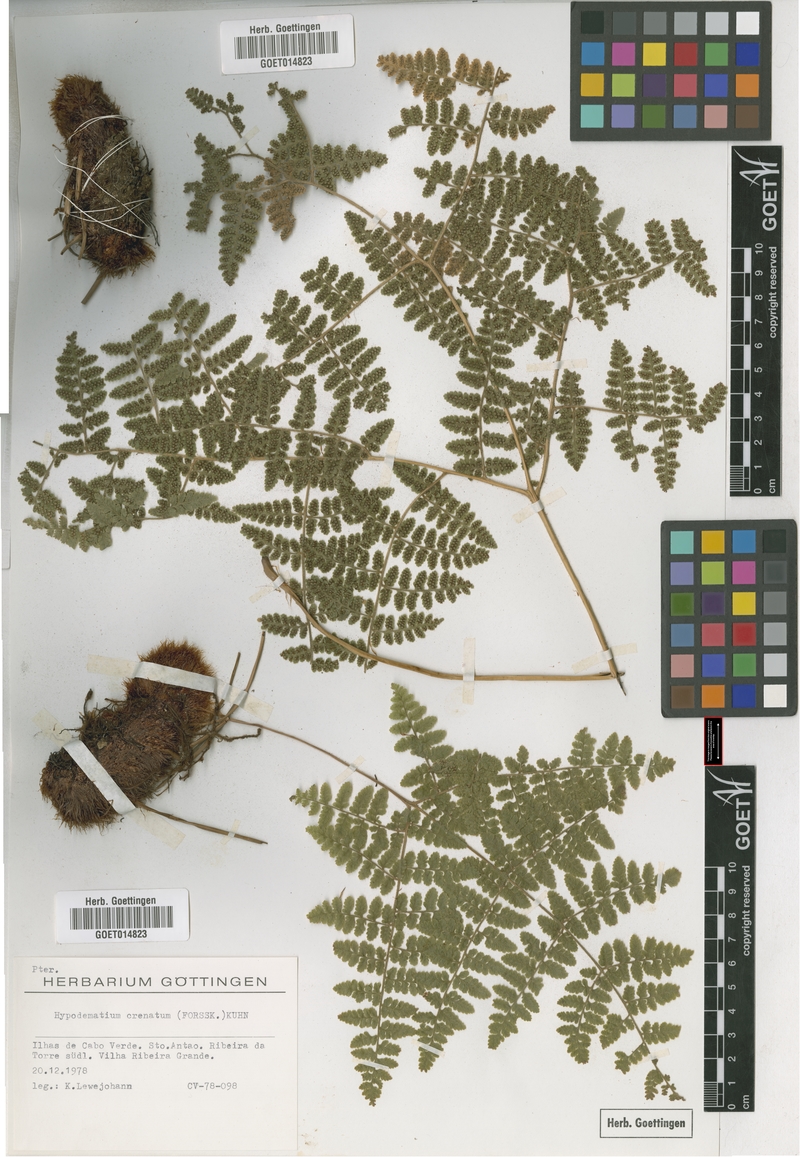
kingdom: Plantae
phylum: Tracheophyta
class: Polypodiopsida
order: Polypodiales
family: Hypodematiaceae
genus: Hypodematium
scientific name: Hypodematium chrysolepis
